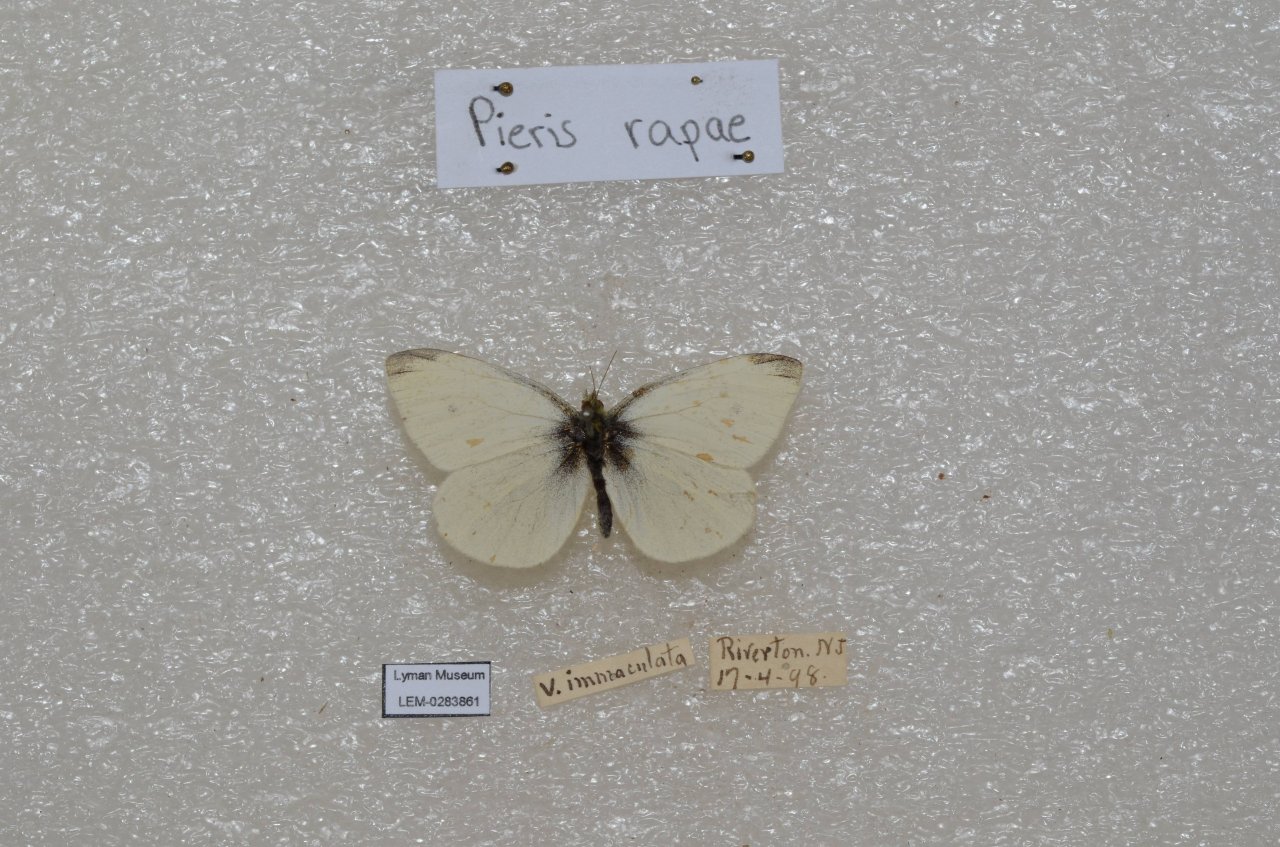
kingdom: Animalia
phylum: Arthropoda
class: Insecta
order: Lepidoptera
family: Pieridae
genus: Pieris
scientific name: Pieris rapae
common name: Cabbage White
